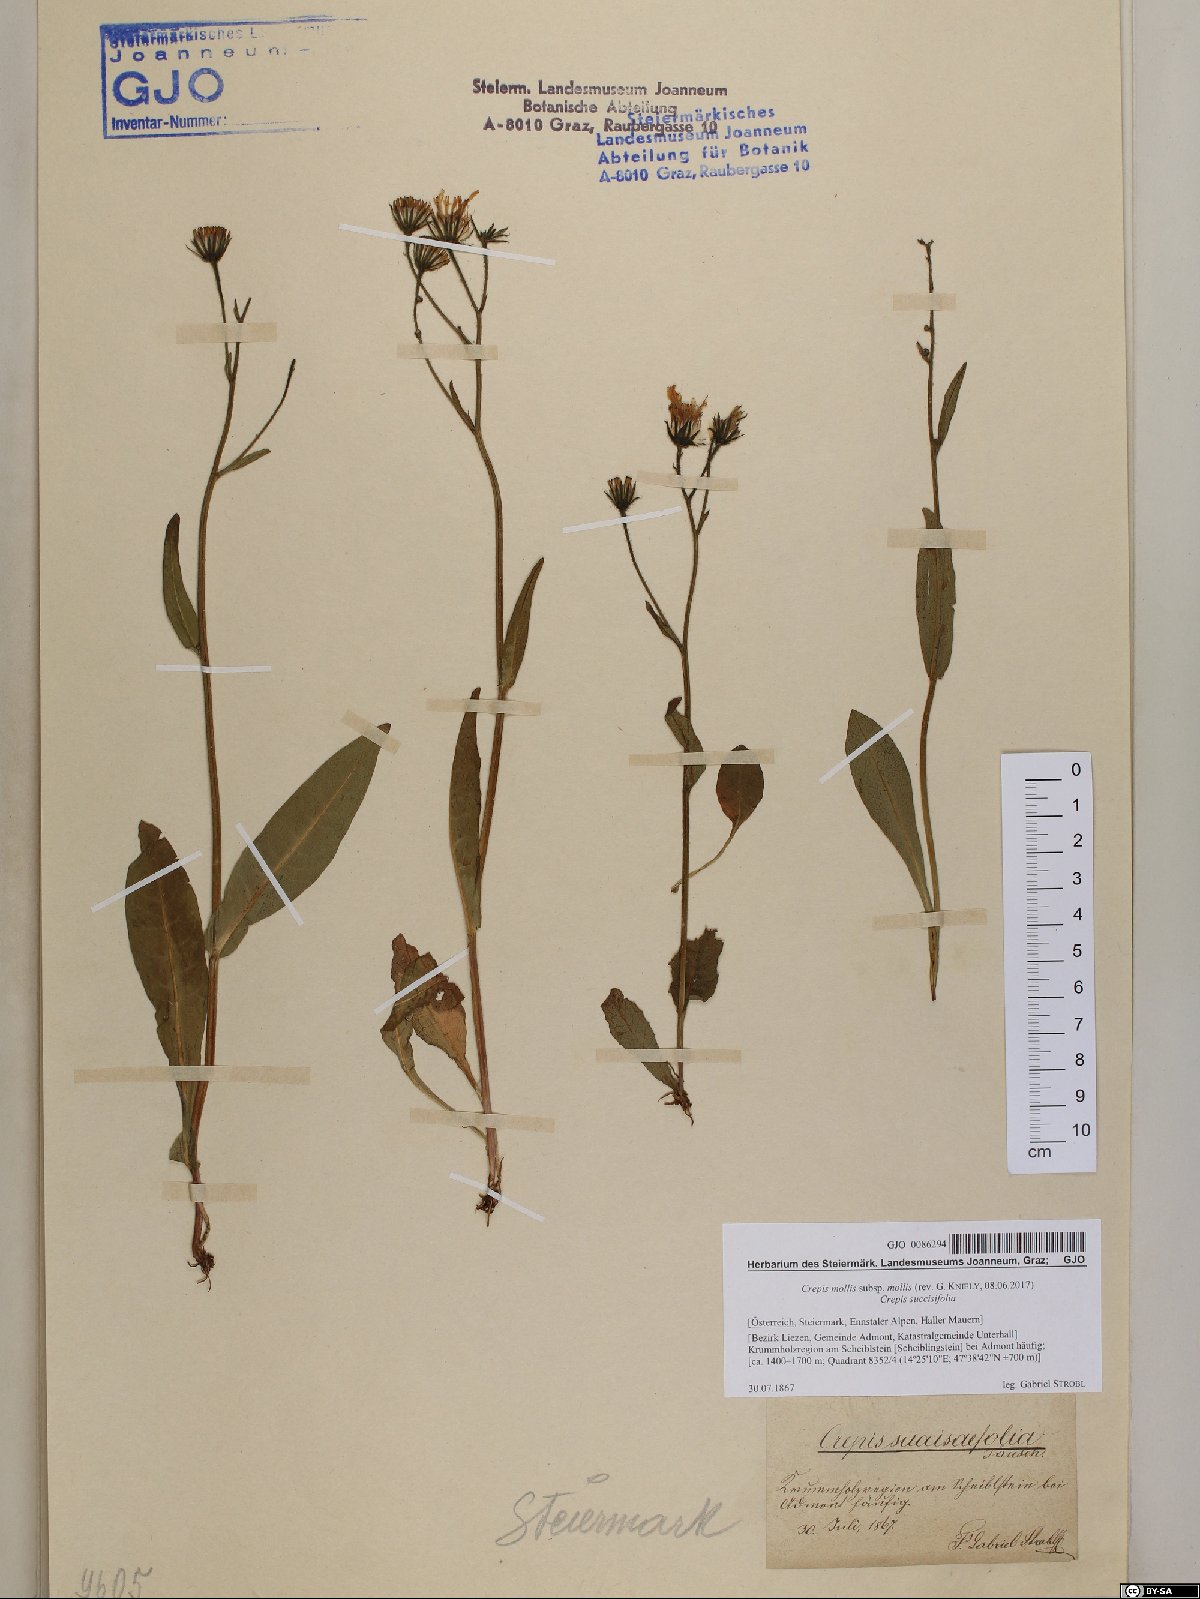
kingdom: Plantae
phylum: Tracheophyta
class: Magnoliopsida
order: Asterales
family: Asteraceae
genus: Crepis
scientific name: Crepis mollis
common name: Northern hawk's-beard
